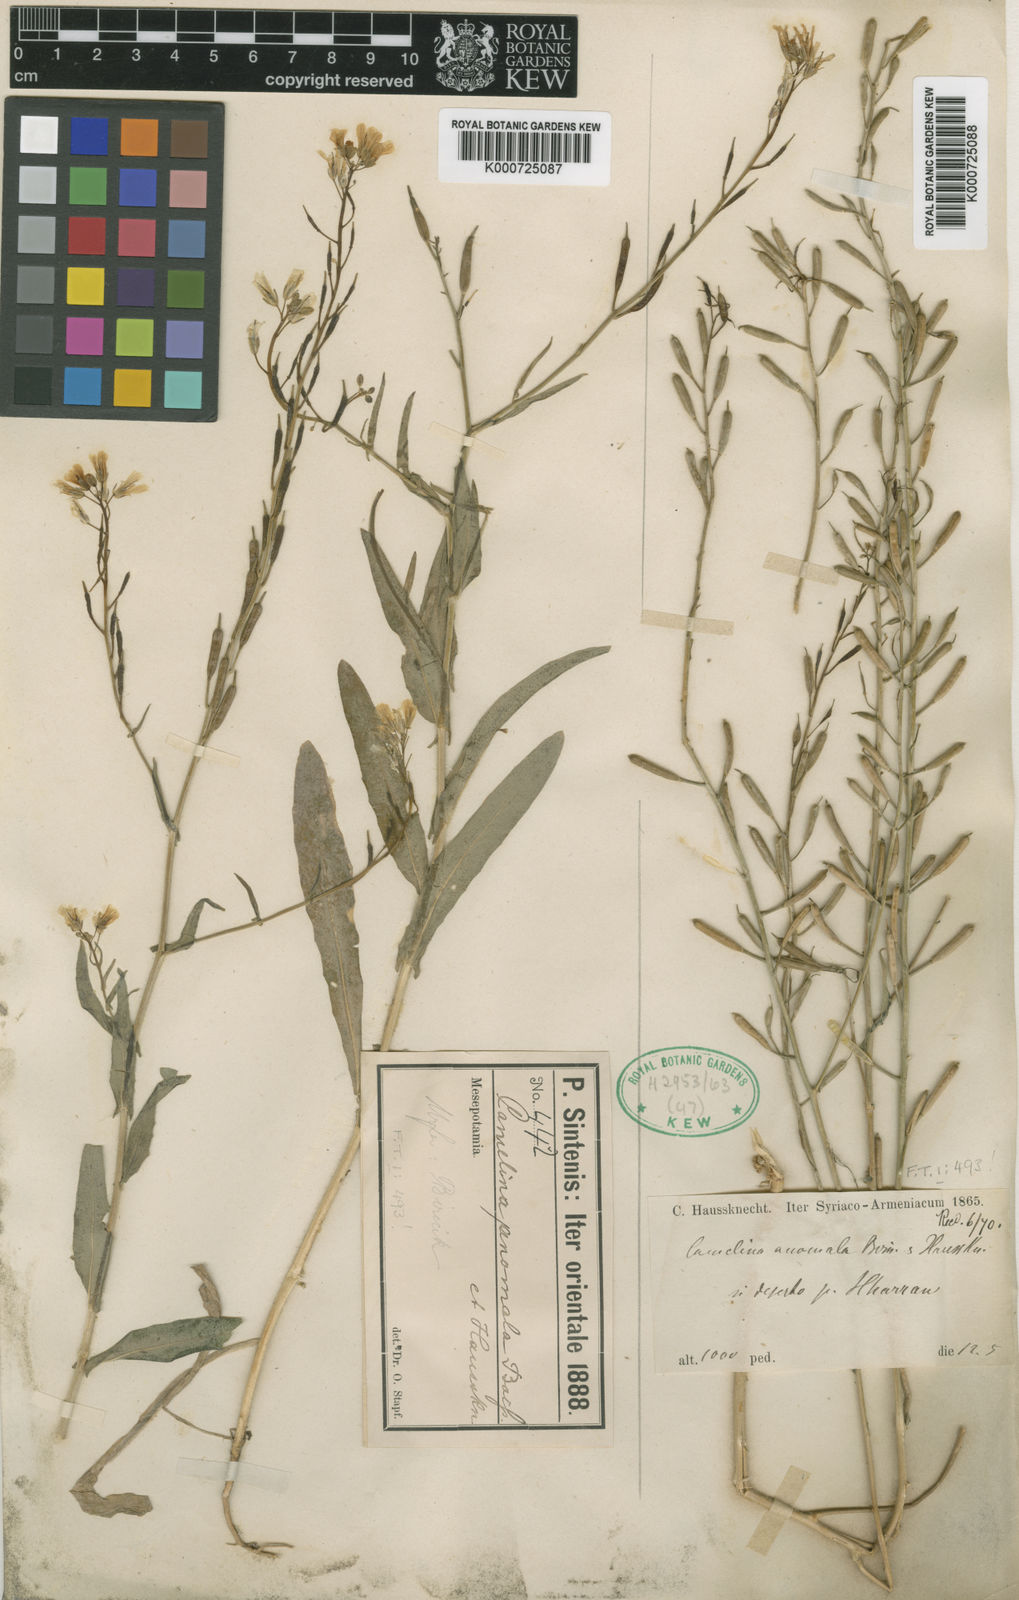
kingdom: Plantae
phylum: Tracheophyta
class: Magnoliopsida
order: Brassicales
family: Brassicaceae
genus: Camelina
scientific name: Camelina anomala
